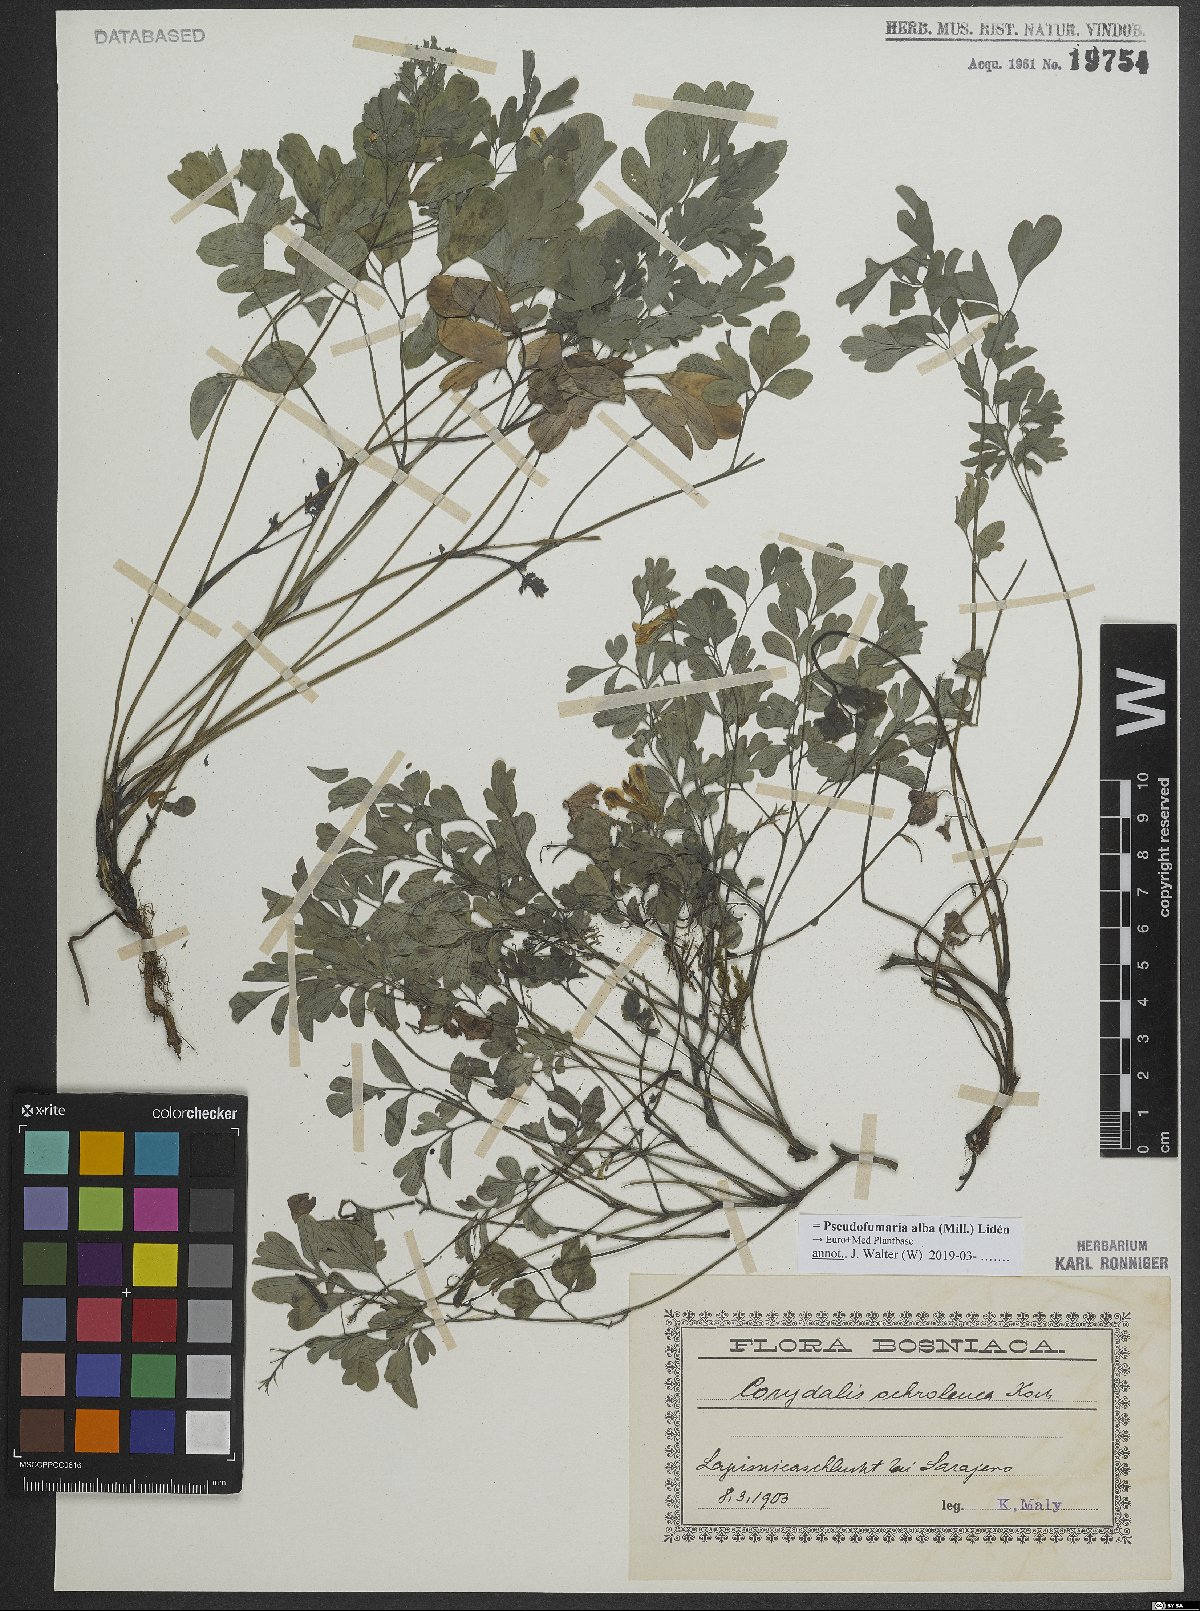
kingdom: Plantae
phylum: Tracheophyta
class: Magnoliopsida
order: Ranunculales
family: Papaveraceae
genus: Pseudofumaria
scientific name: Pseudofumaria alba
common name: Pale corydalis
